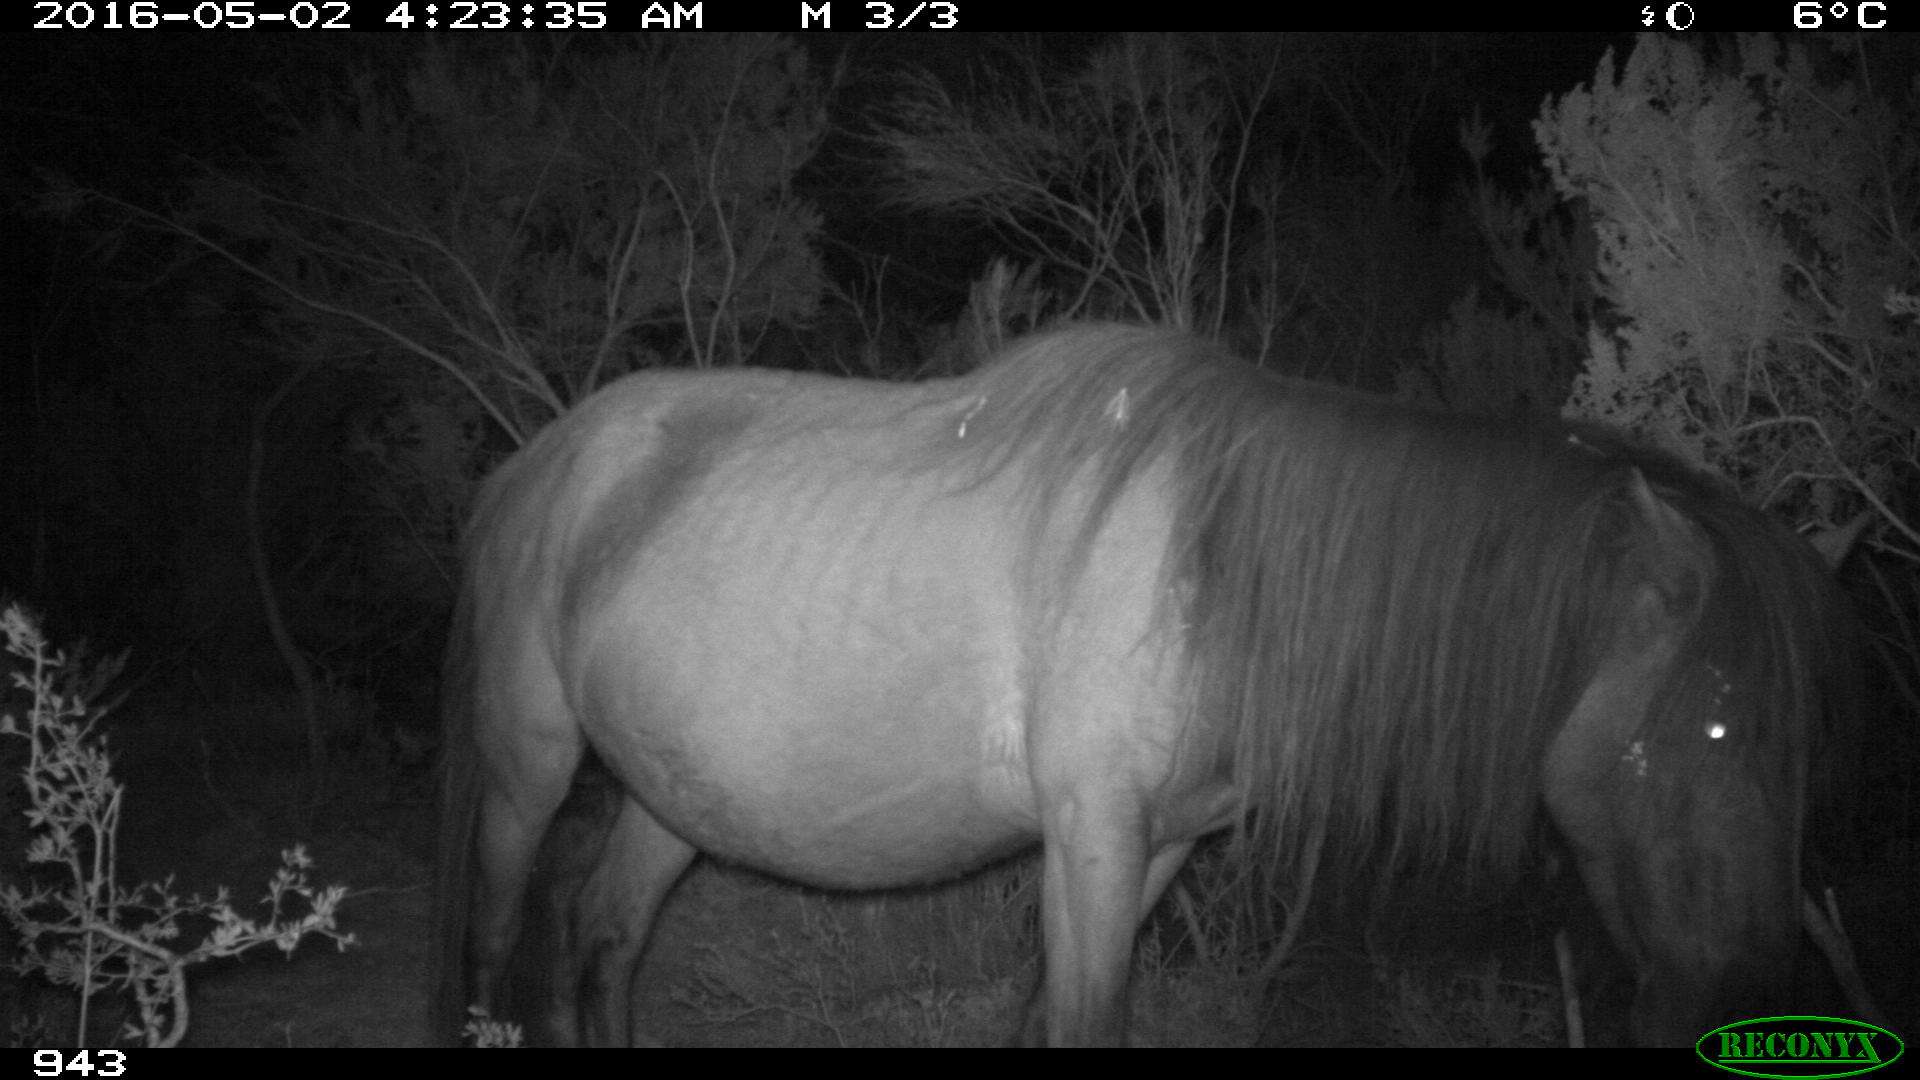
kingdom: Animalia
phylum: Chordata
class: Mammalia
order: Perissodactyla
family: Equidae
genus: Equus
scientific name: Equus caballus
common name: Horse
